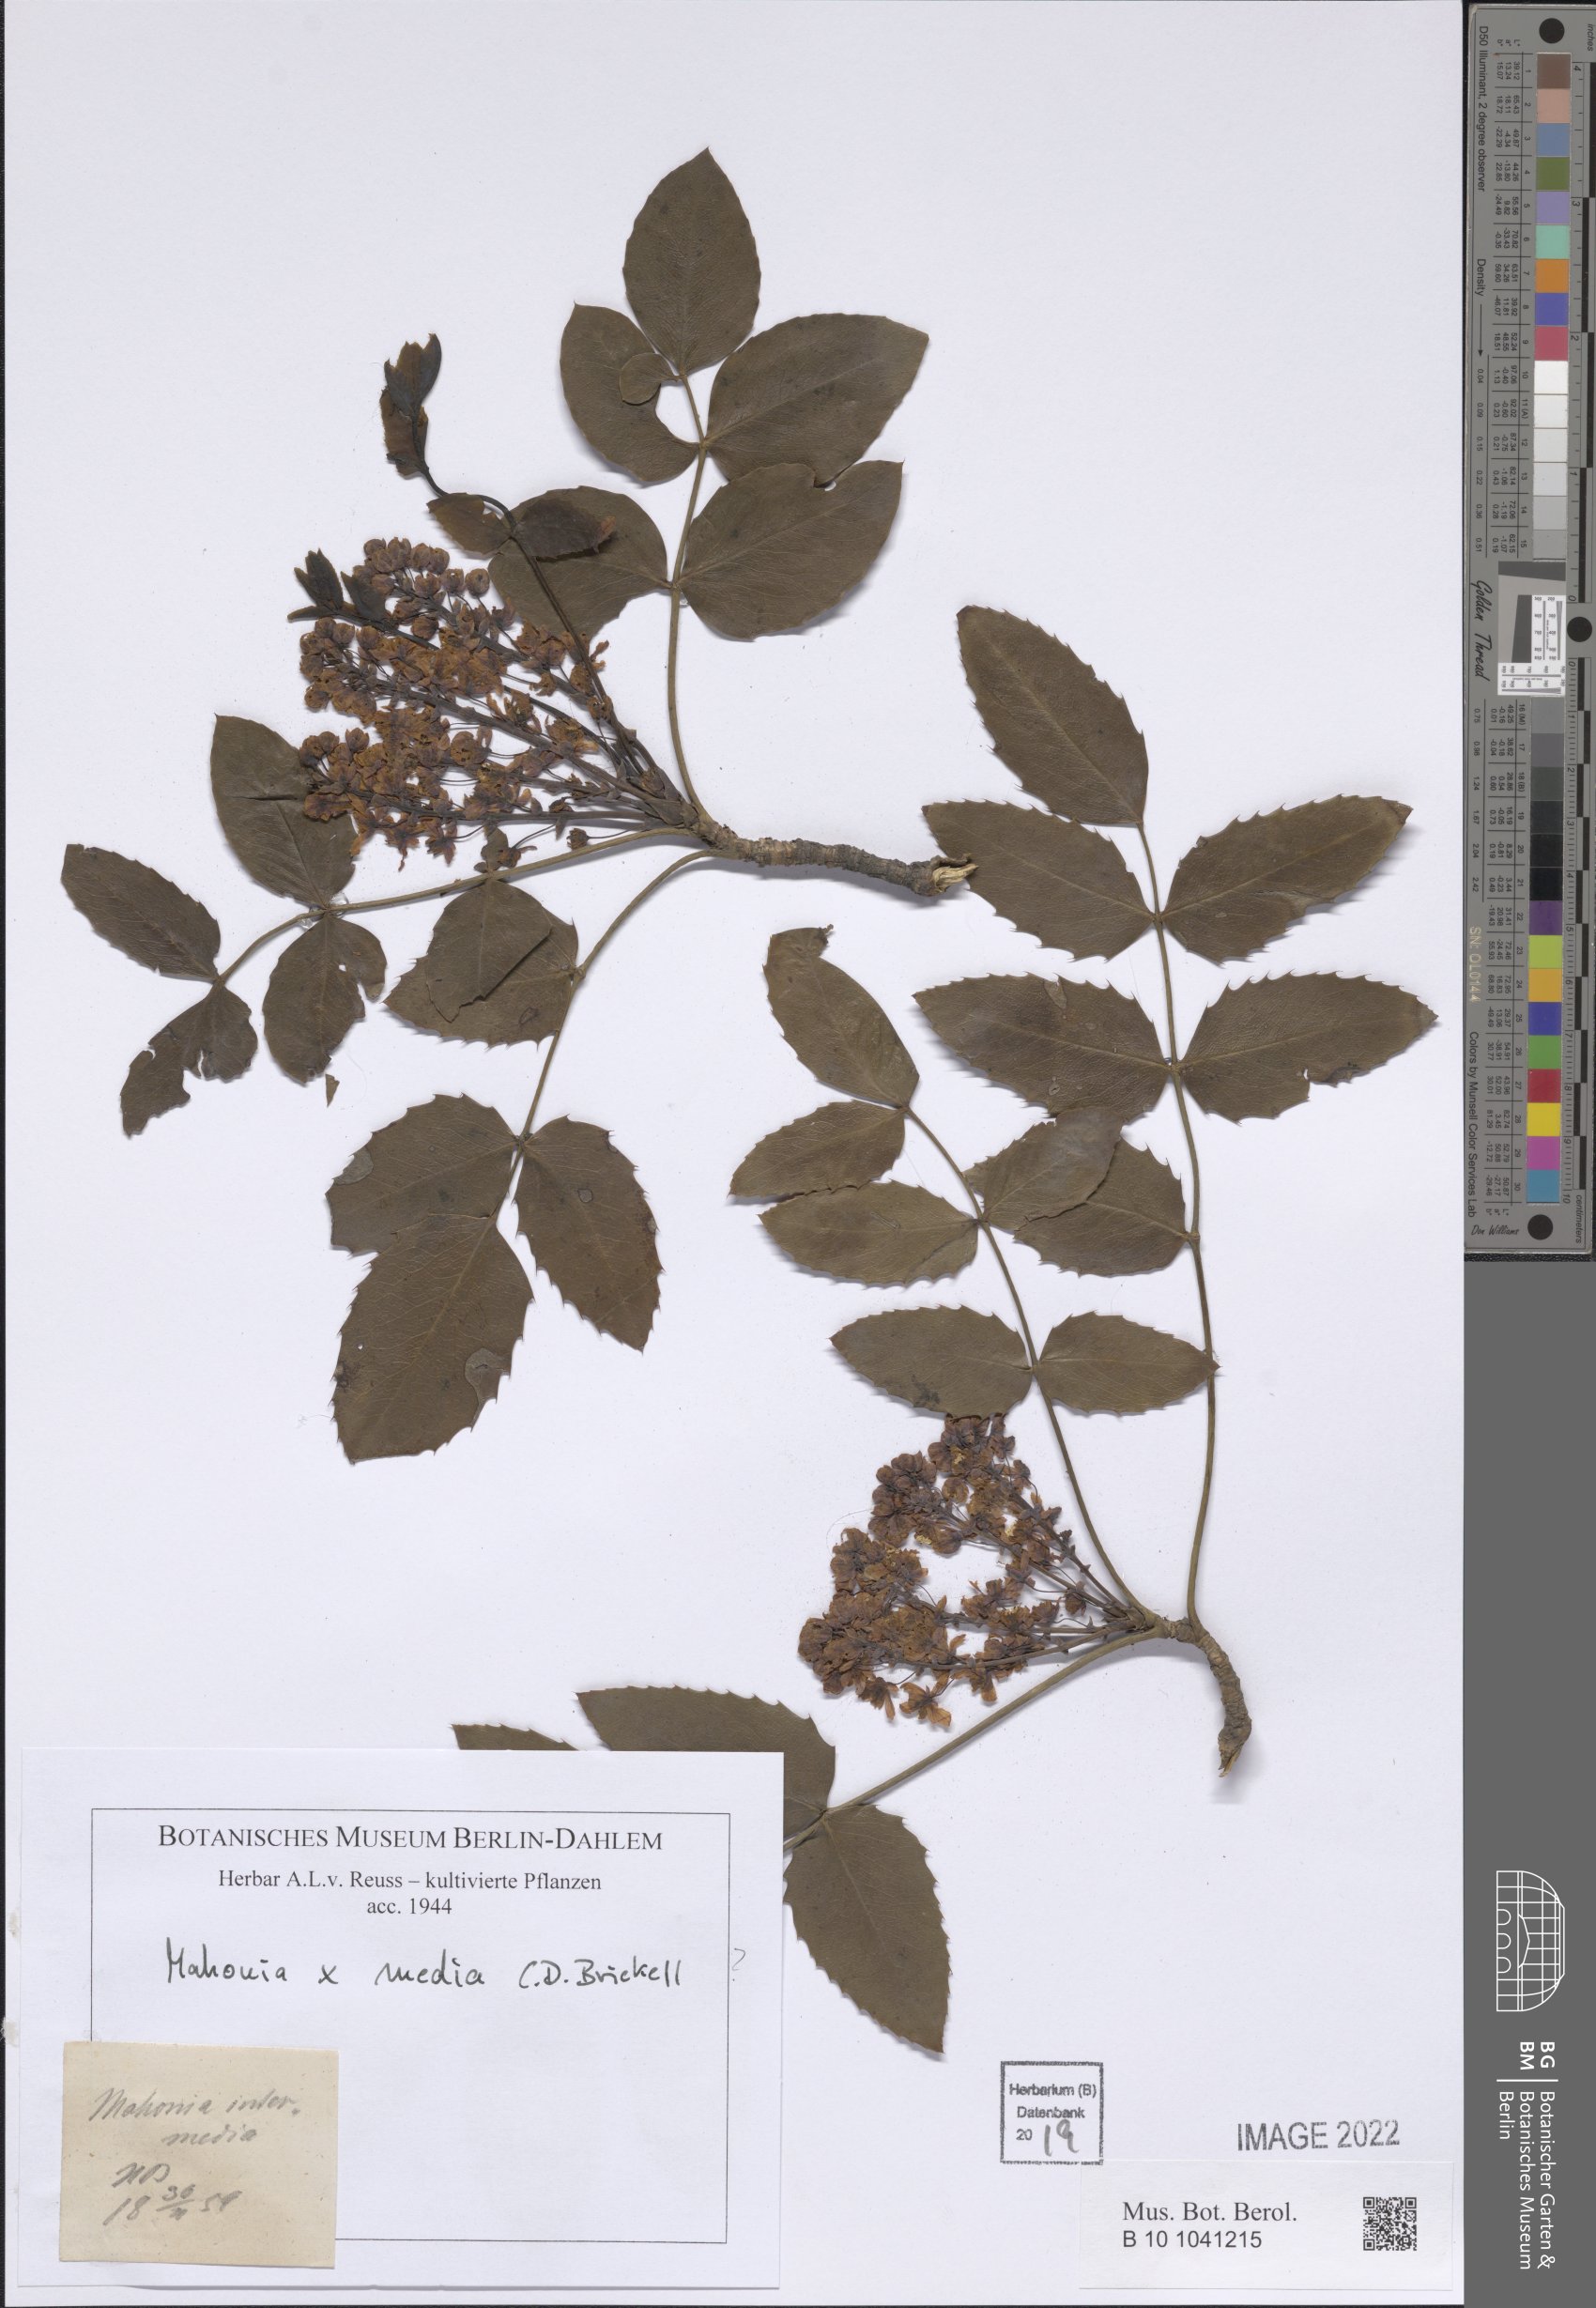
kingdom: Plantae
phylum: Tracheophyta
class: Magnoliopsida
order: Ranunculales
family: Berberidaceae
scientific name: Berberidaceae
